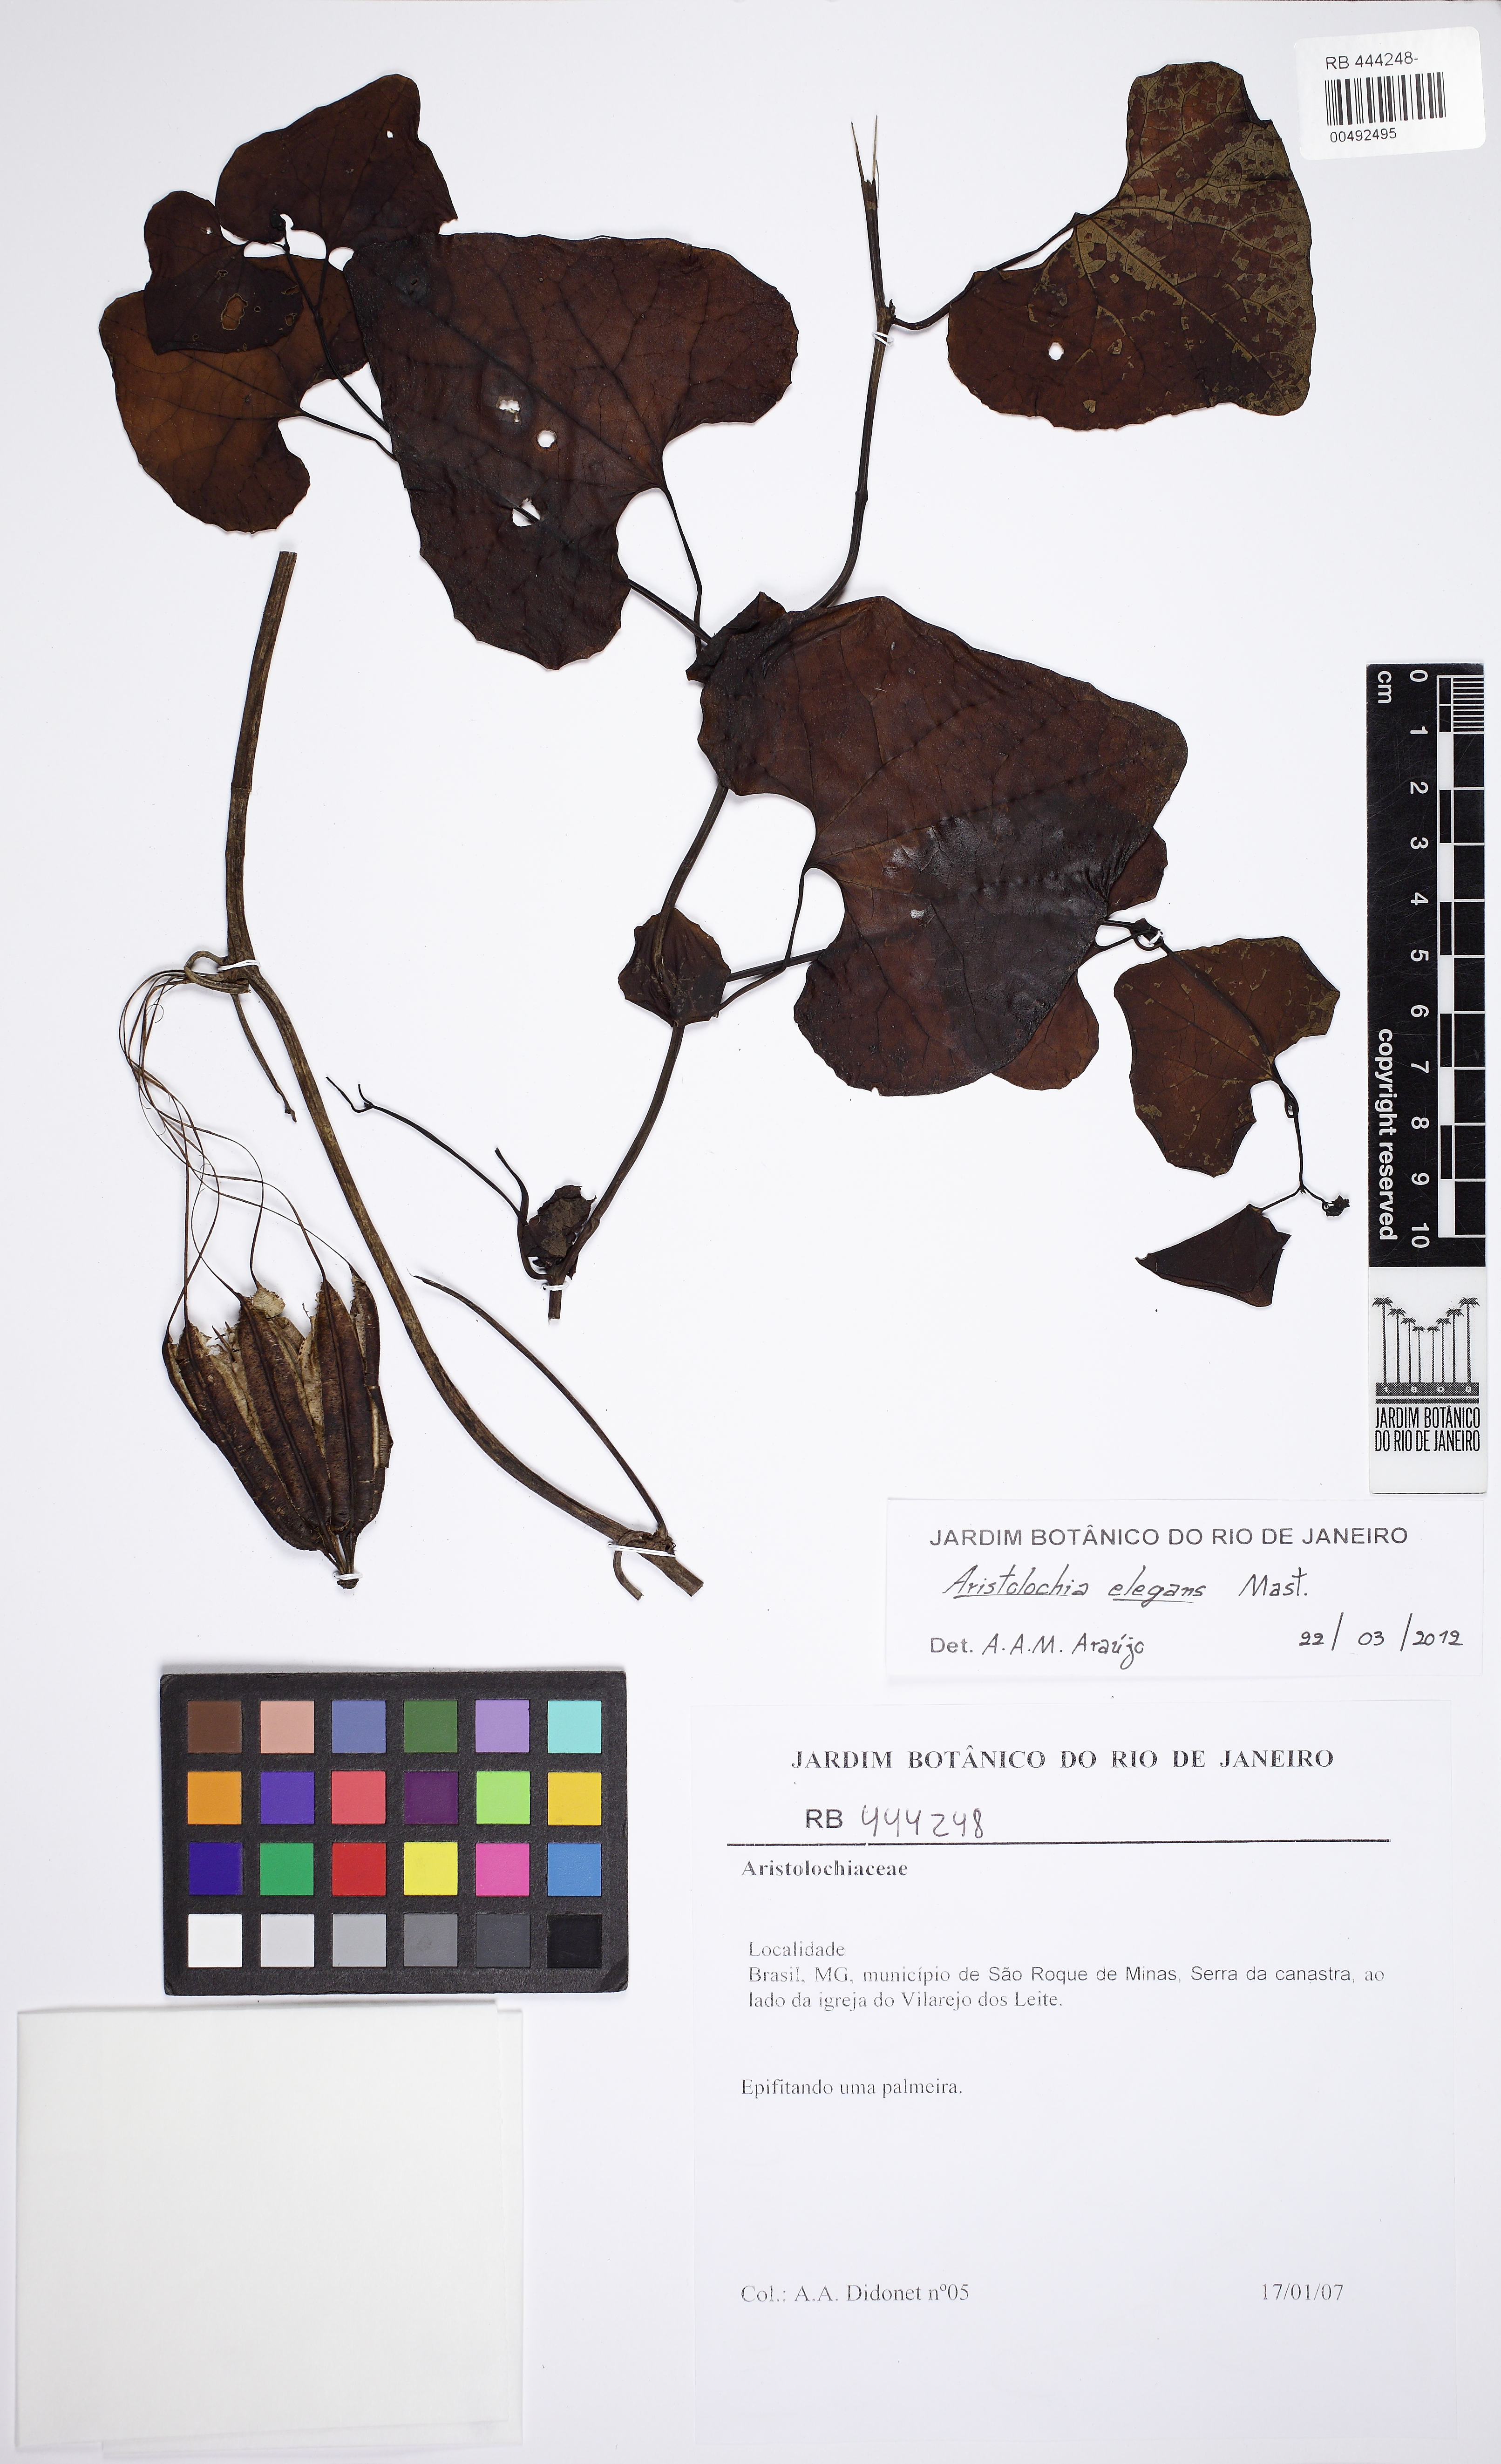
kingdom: Plantae
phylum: Tracheophyta
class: Magnoliopsida
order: Piperales
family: Aristolochiaceae
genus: Aristolochia
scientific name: Aristolochia littoralis
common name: Duck
